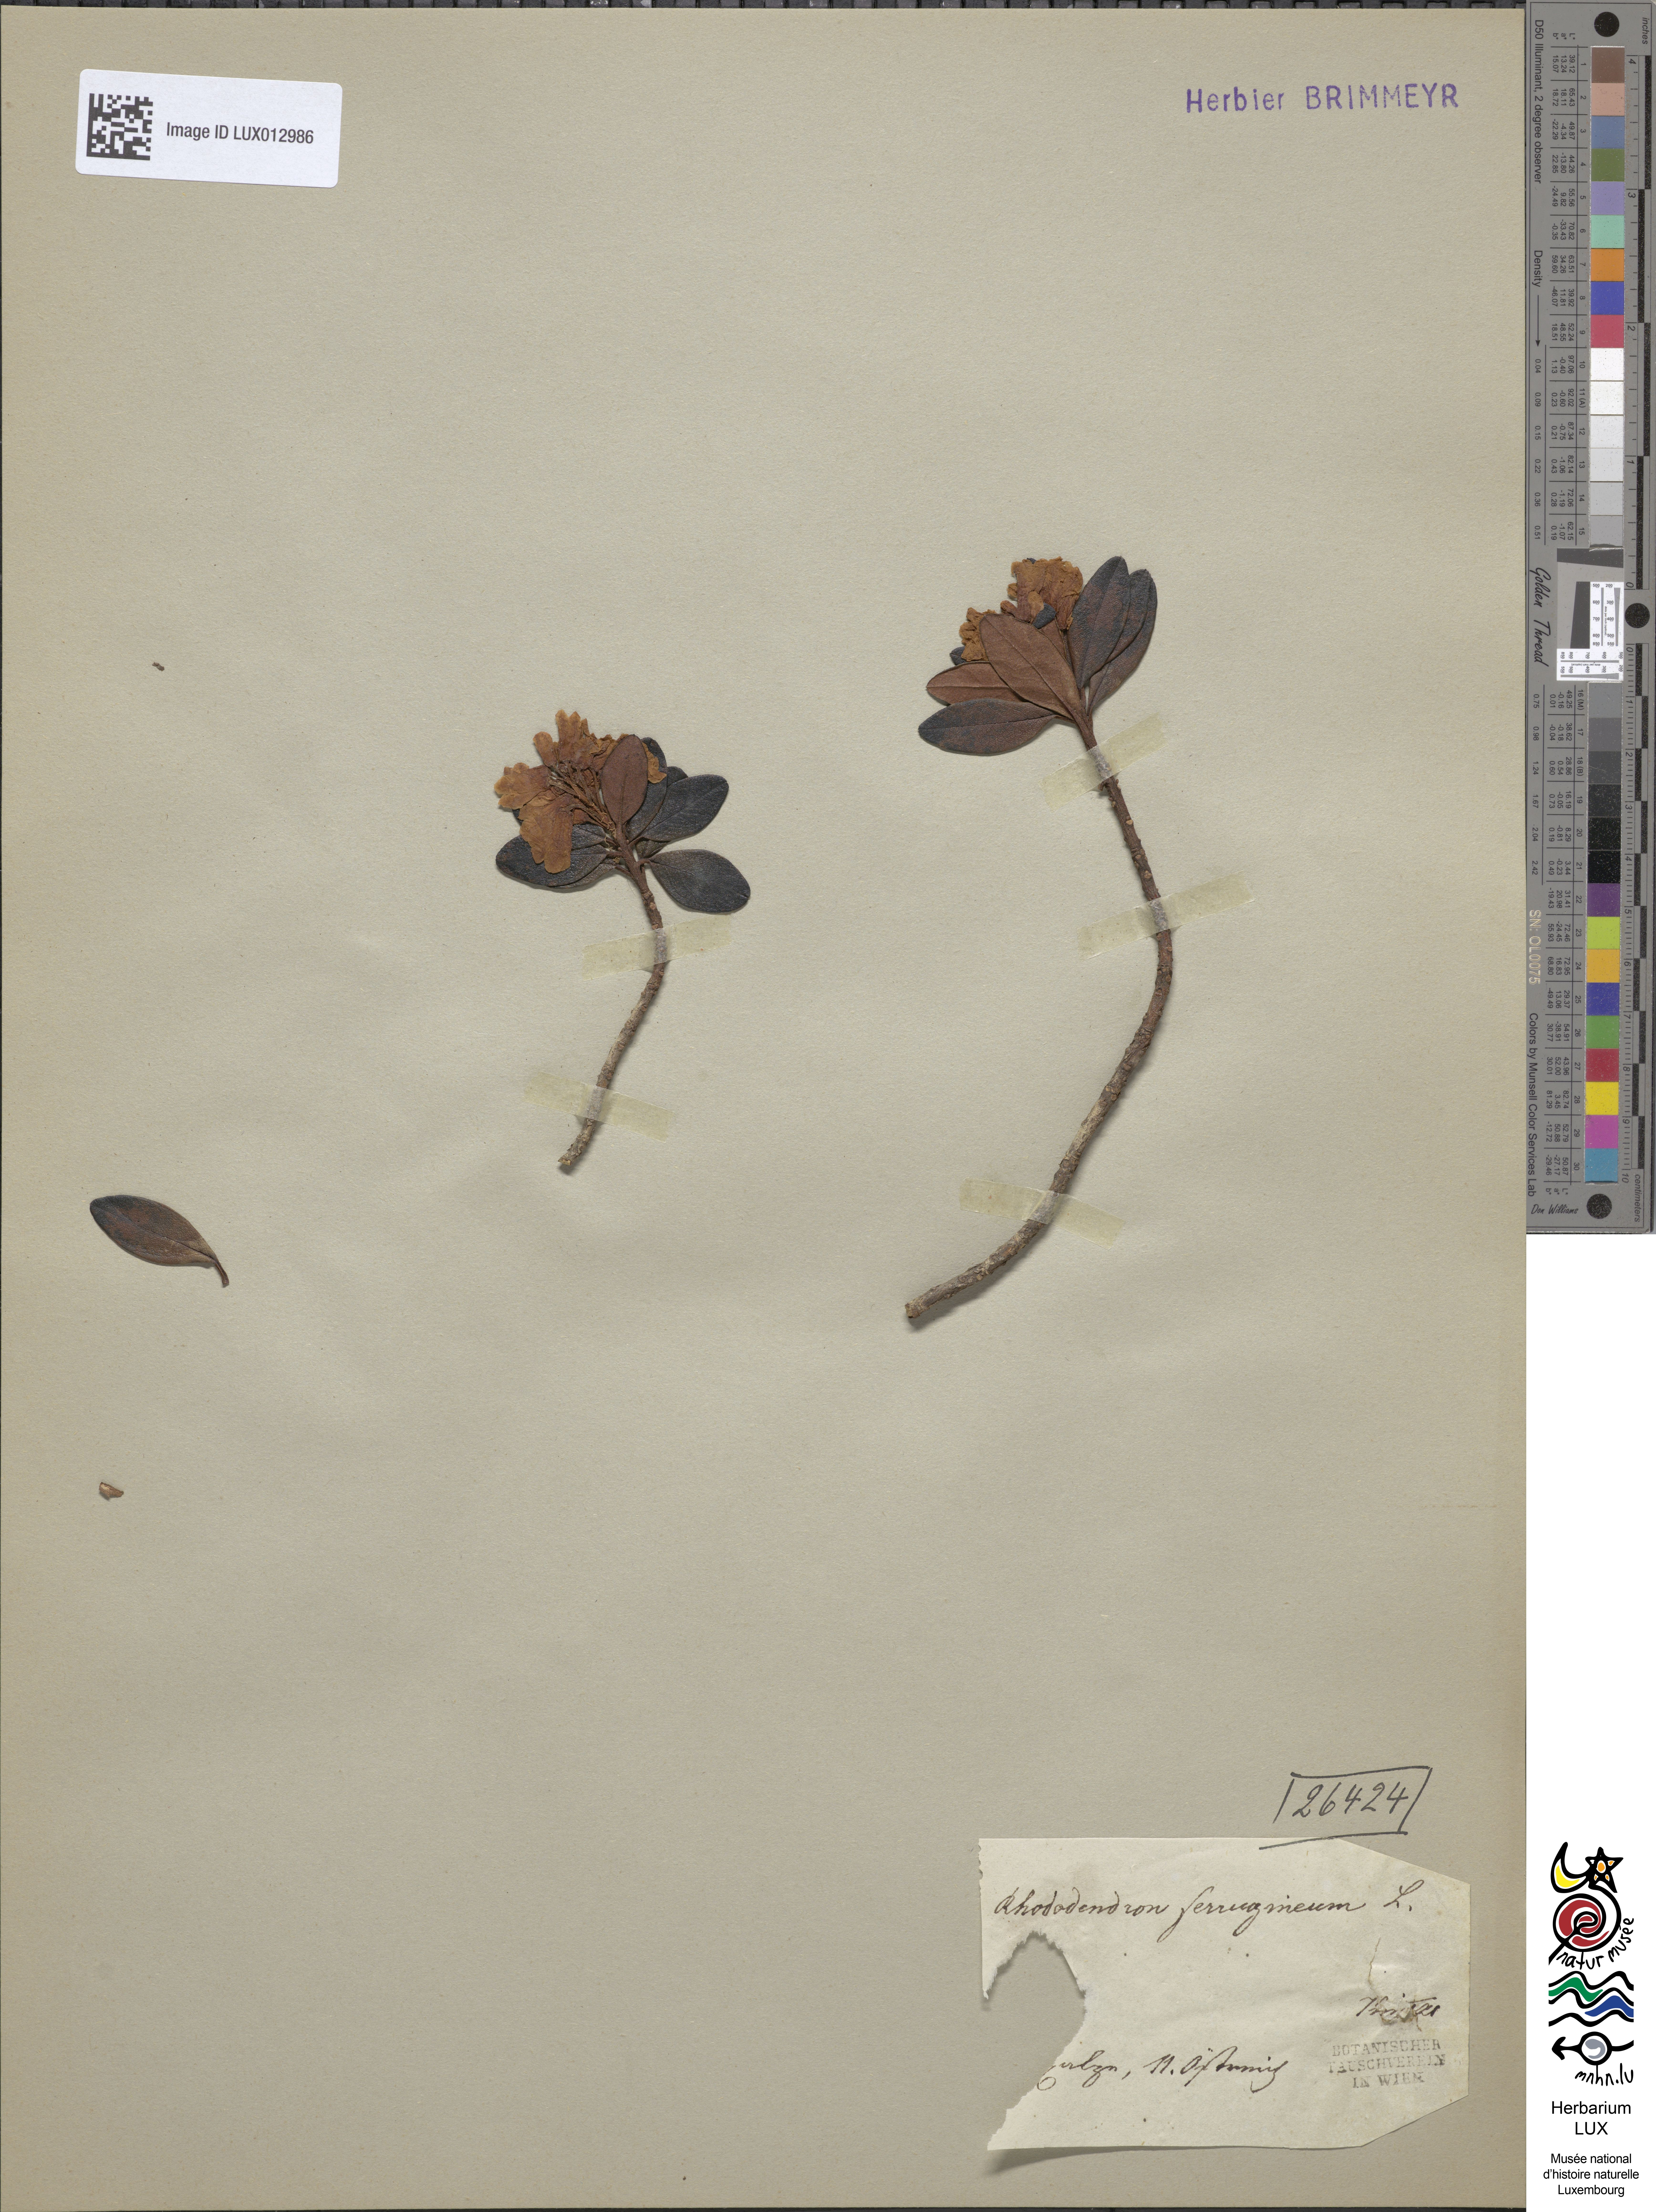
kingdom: Plantae
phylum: Tracheophyta
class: Magnoliopsida
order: Ericales
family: Ericaceae
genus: Rhododendron
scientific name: Rhododendron ferrugineum
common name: Alpenrose
